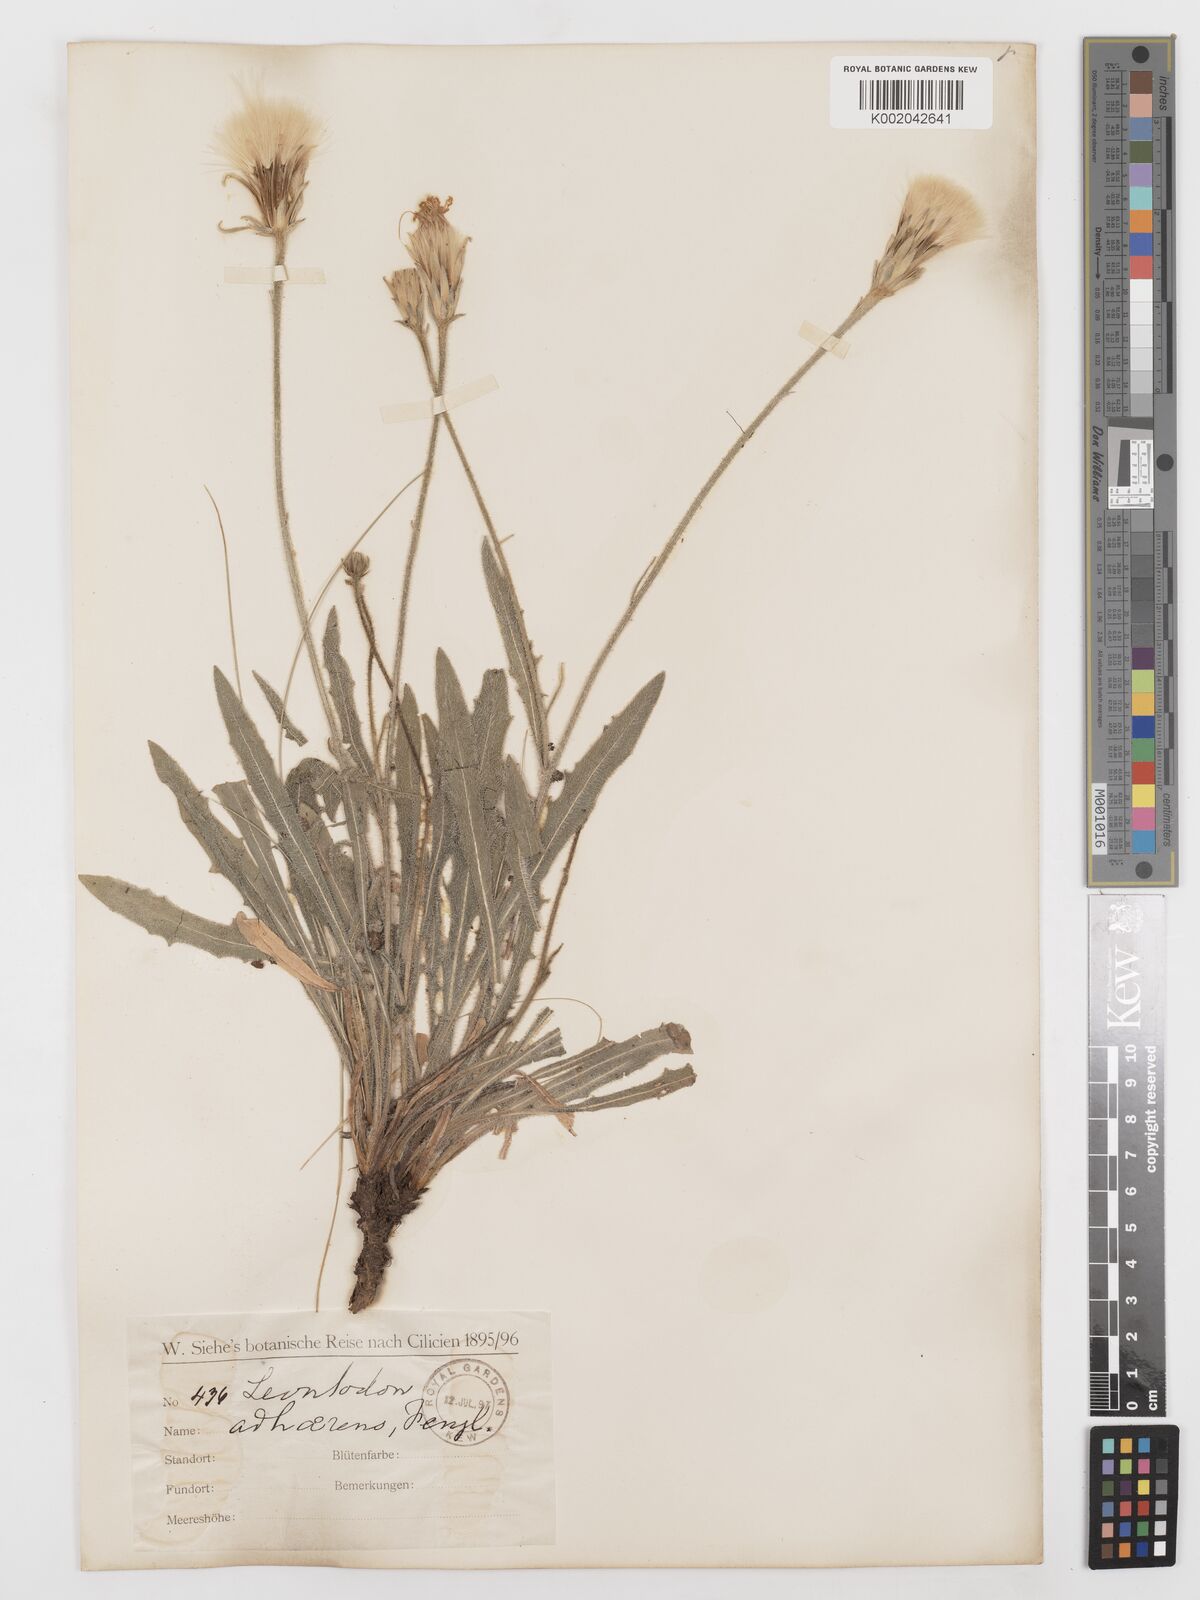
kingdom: Plantae
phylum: Tracheophyta
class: Magnoliopsida
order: Asterales
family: Asteraceae
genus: Leontodon
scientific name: Leontodon oxylepis
